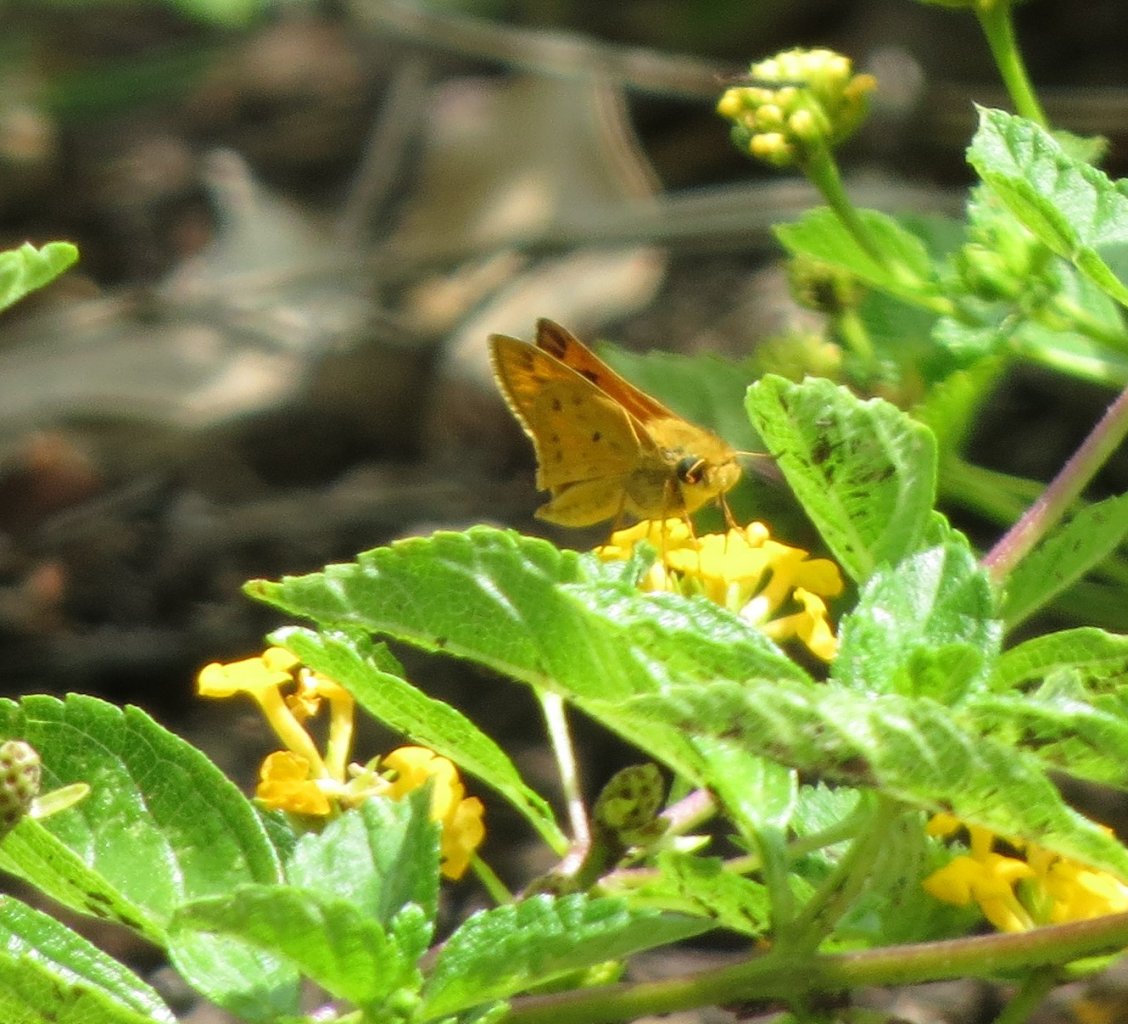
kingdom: Animalia
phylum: Arthropoda
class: Insecta
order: Lepidoptera
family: Hesperiidae
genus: Hylephila
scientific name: Hylephila phyleus
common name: Fiery Skipper
